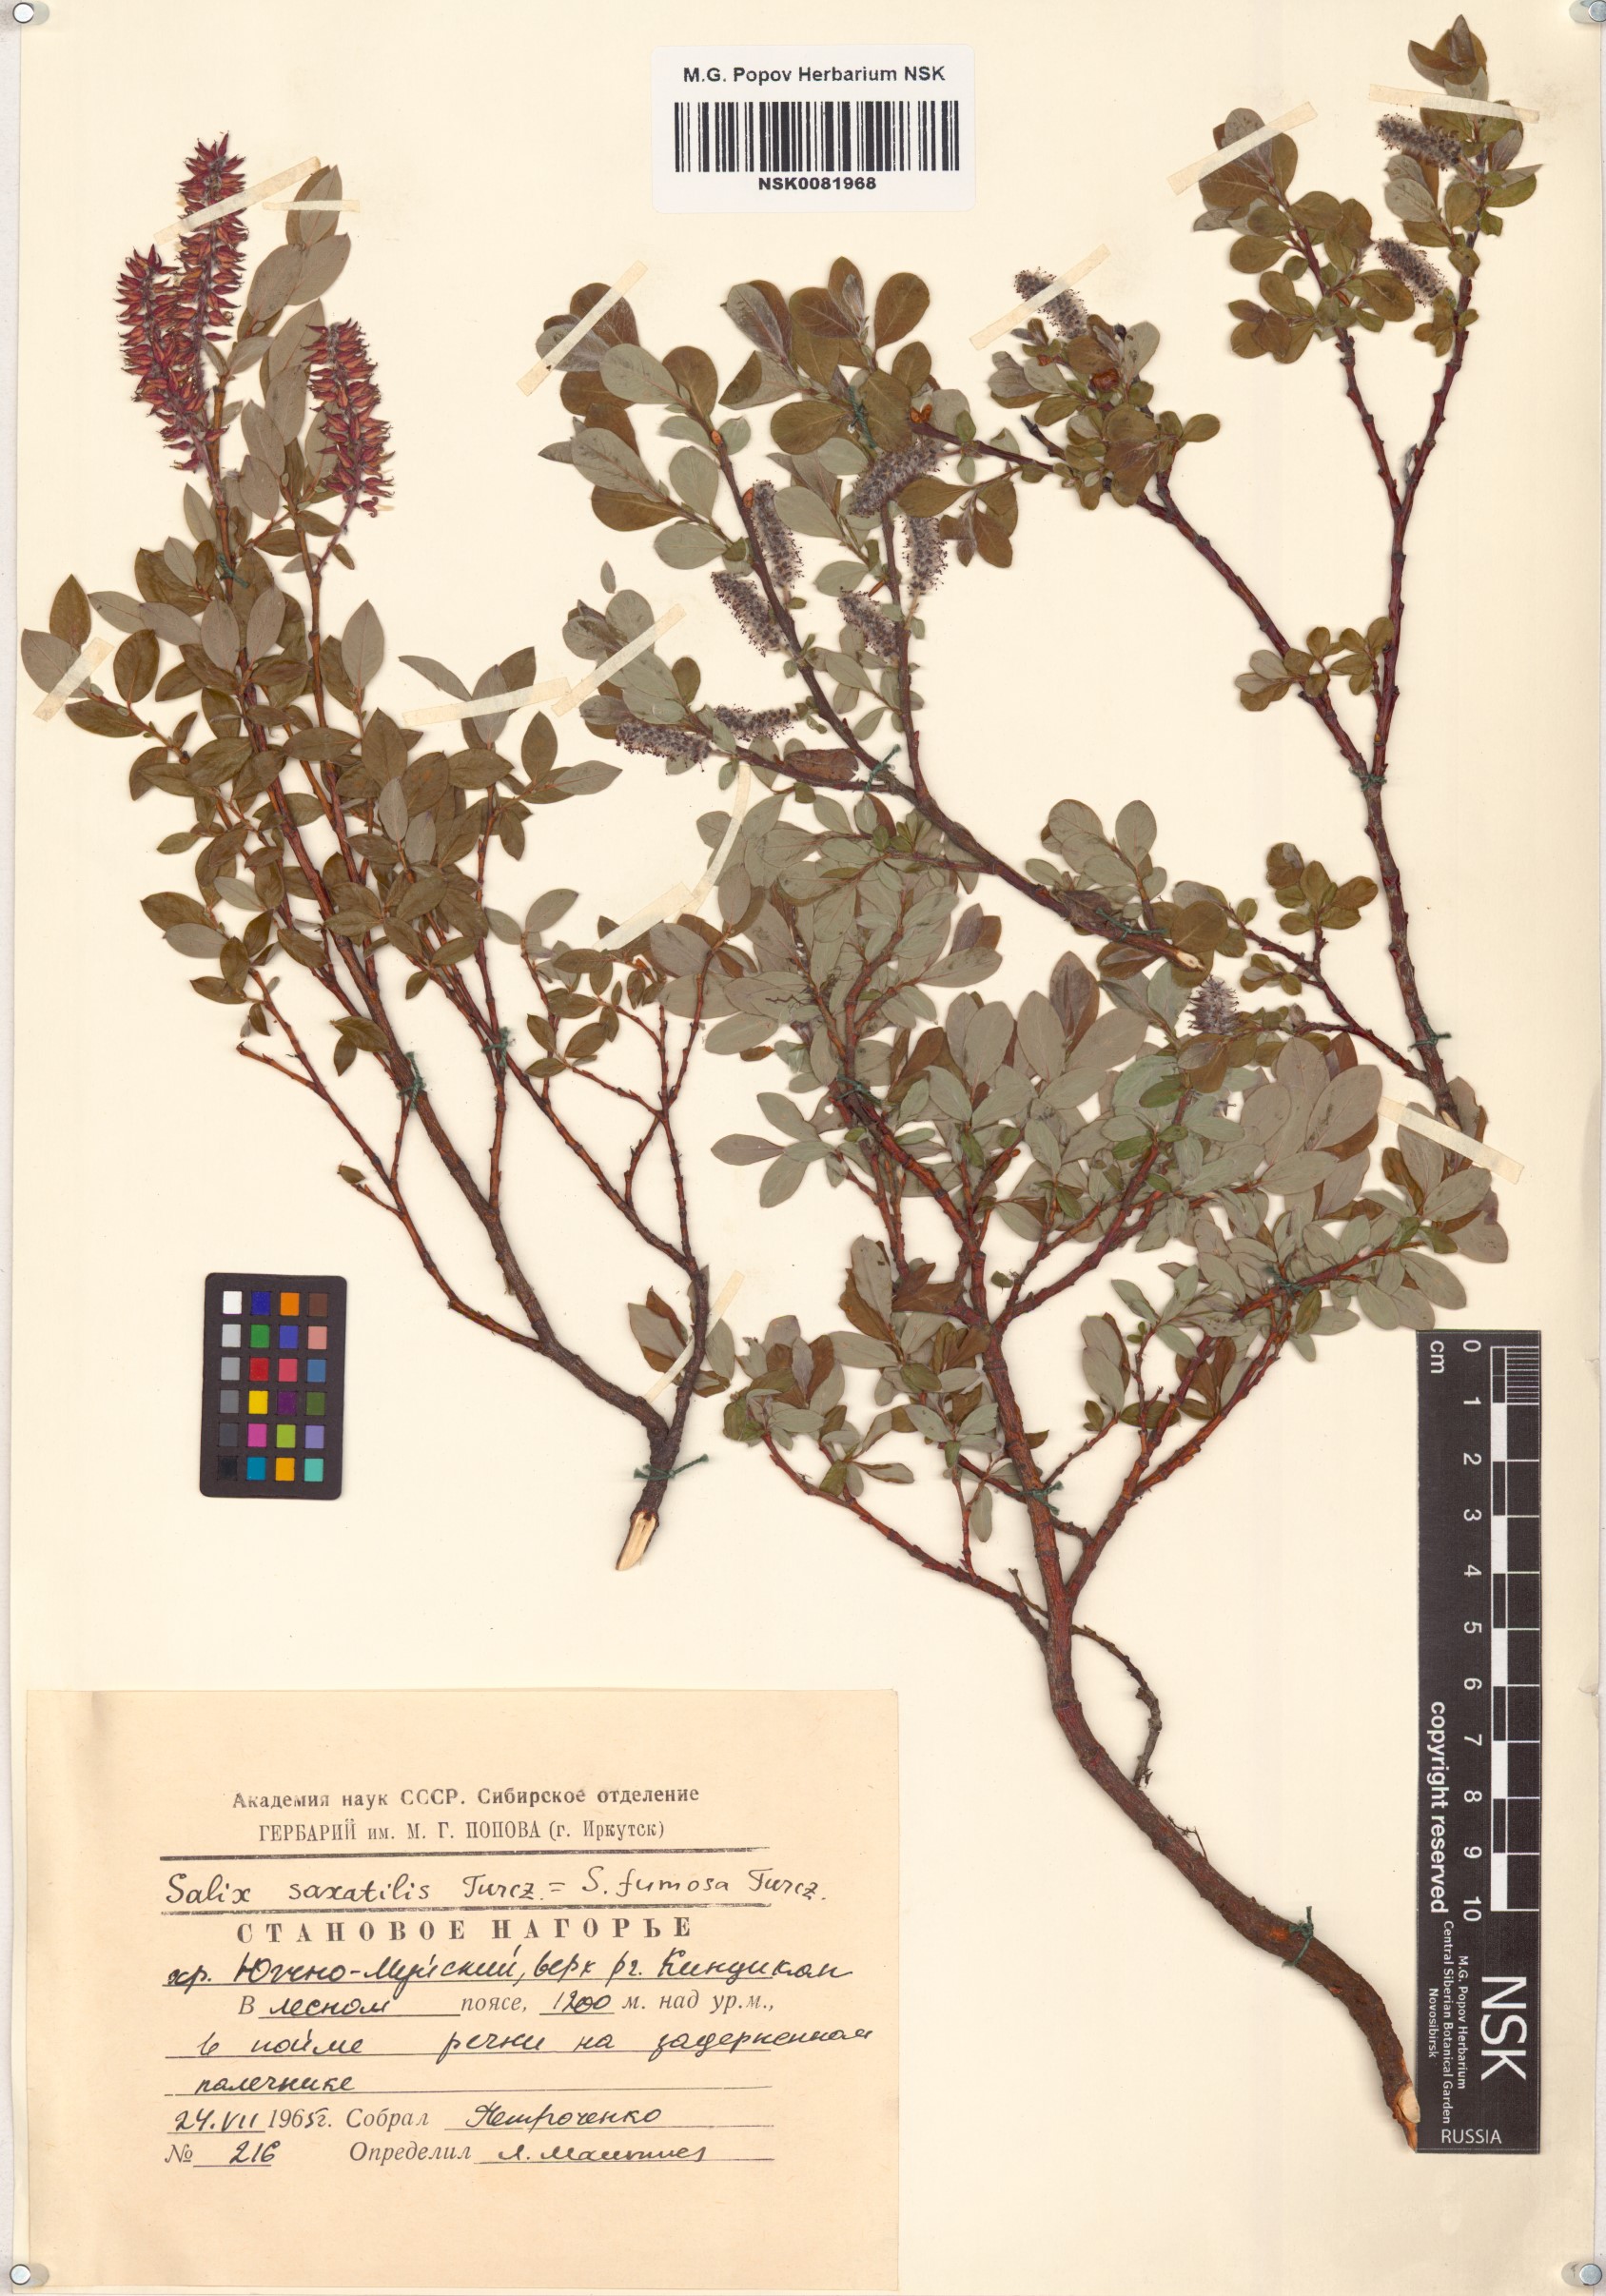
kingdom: Plantae
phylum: Tracheophyta
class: Magnoliopsida
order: Malpighiales
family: Salicaceae
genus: Salix
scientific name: Salix saxatilis
